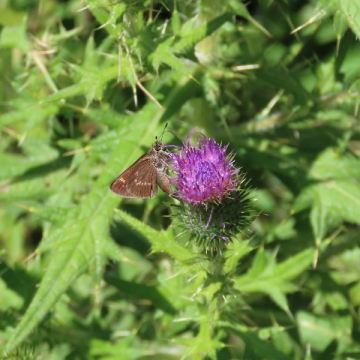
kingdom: Animalia
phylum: Arthropoda
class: Insecta
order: Lepidoptera
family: Hesperiidae
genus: Vernia
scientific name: Vernia verna
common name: Little Glassywing
